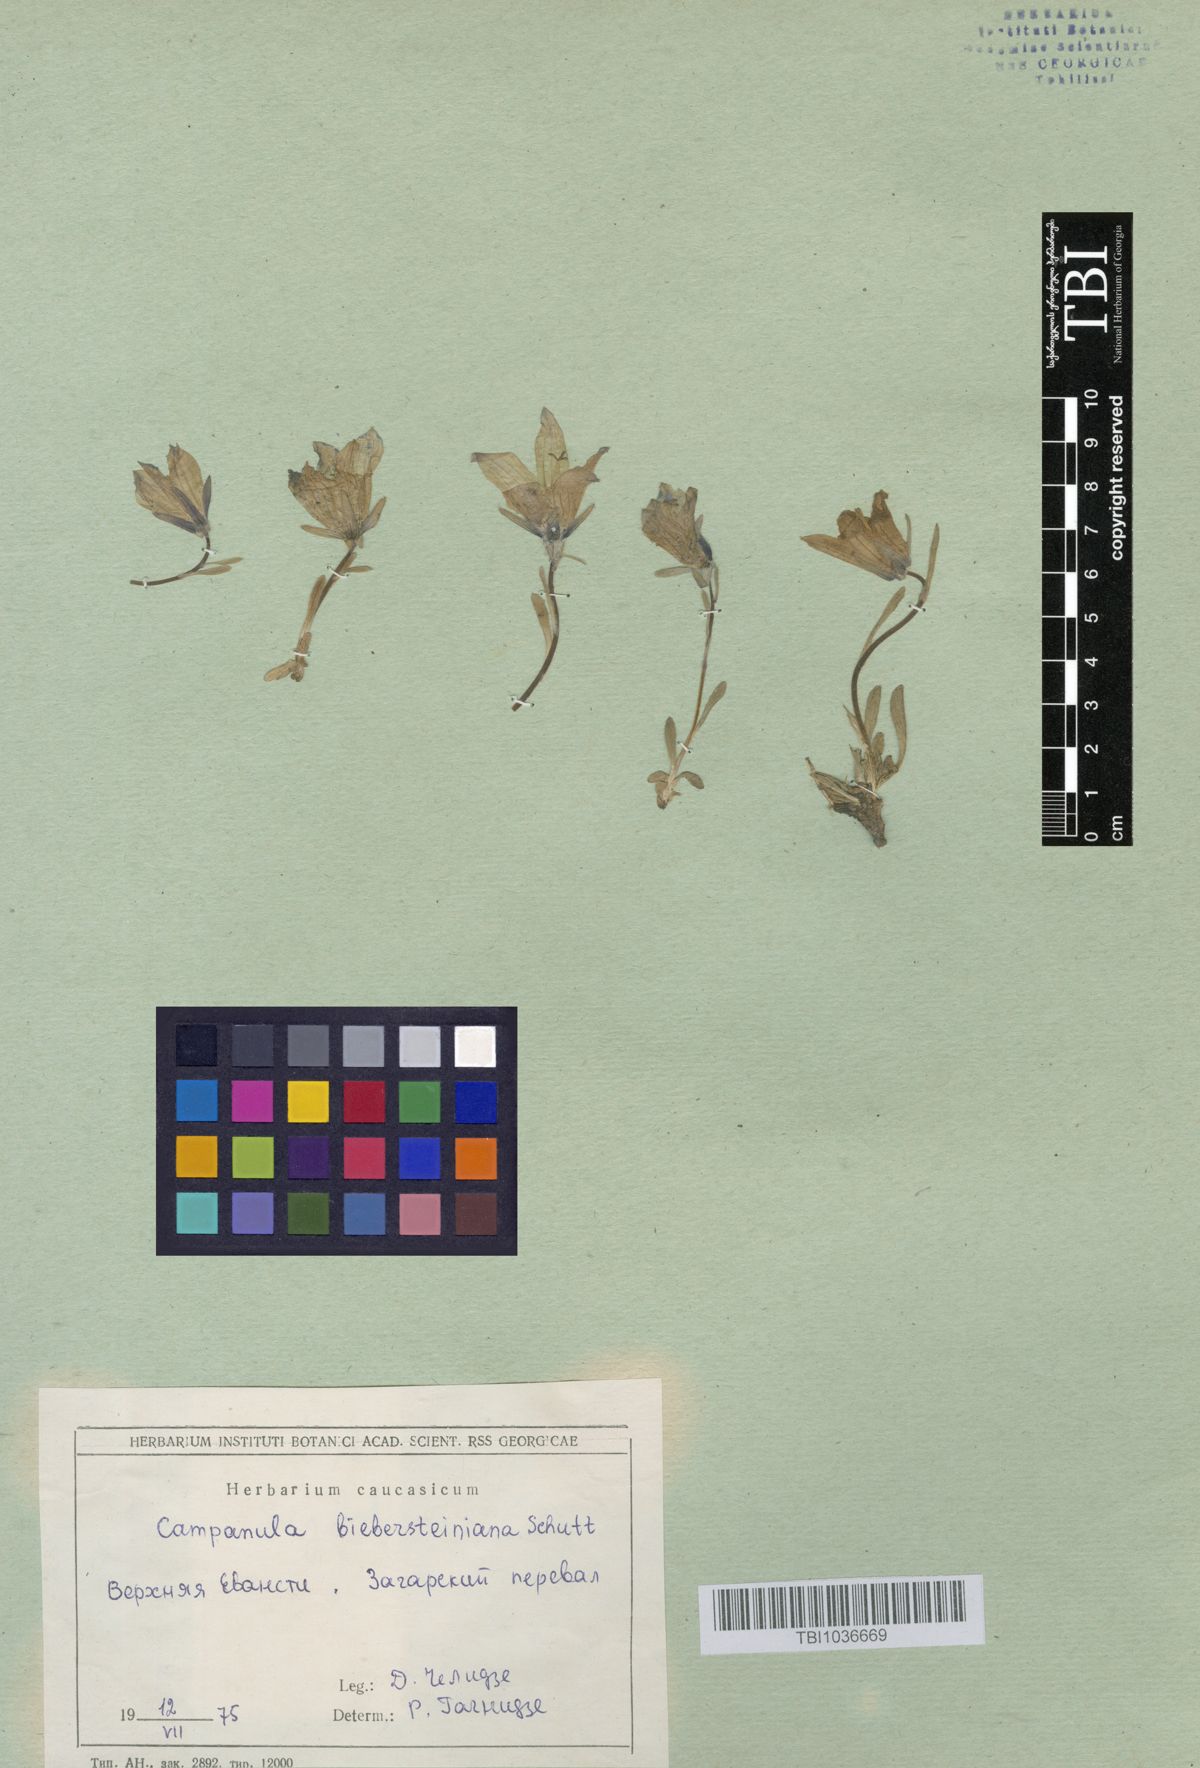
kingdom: Plantae
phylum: Tracheophyta
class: Magnoliopsida
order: Asterales
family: Campanulaceae
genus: Campanula
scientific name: Campanula tridentata
